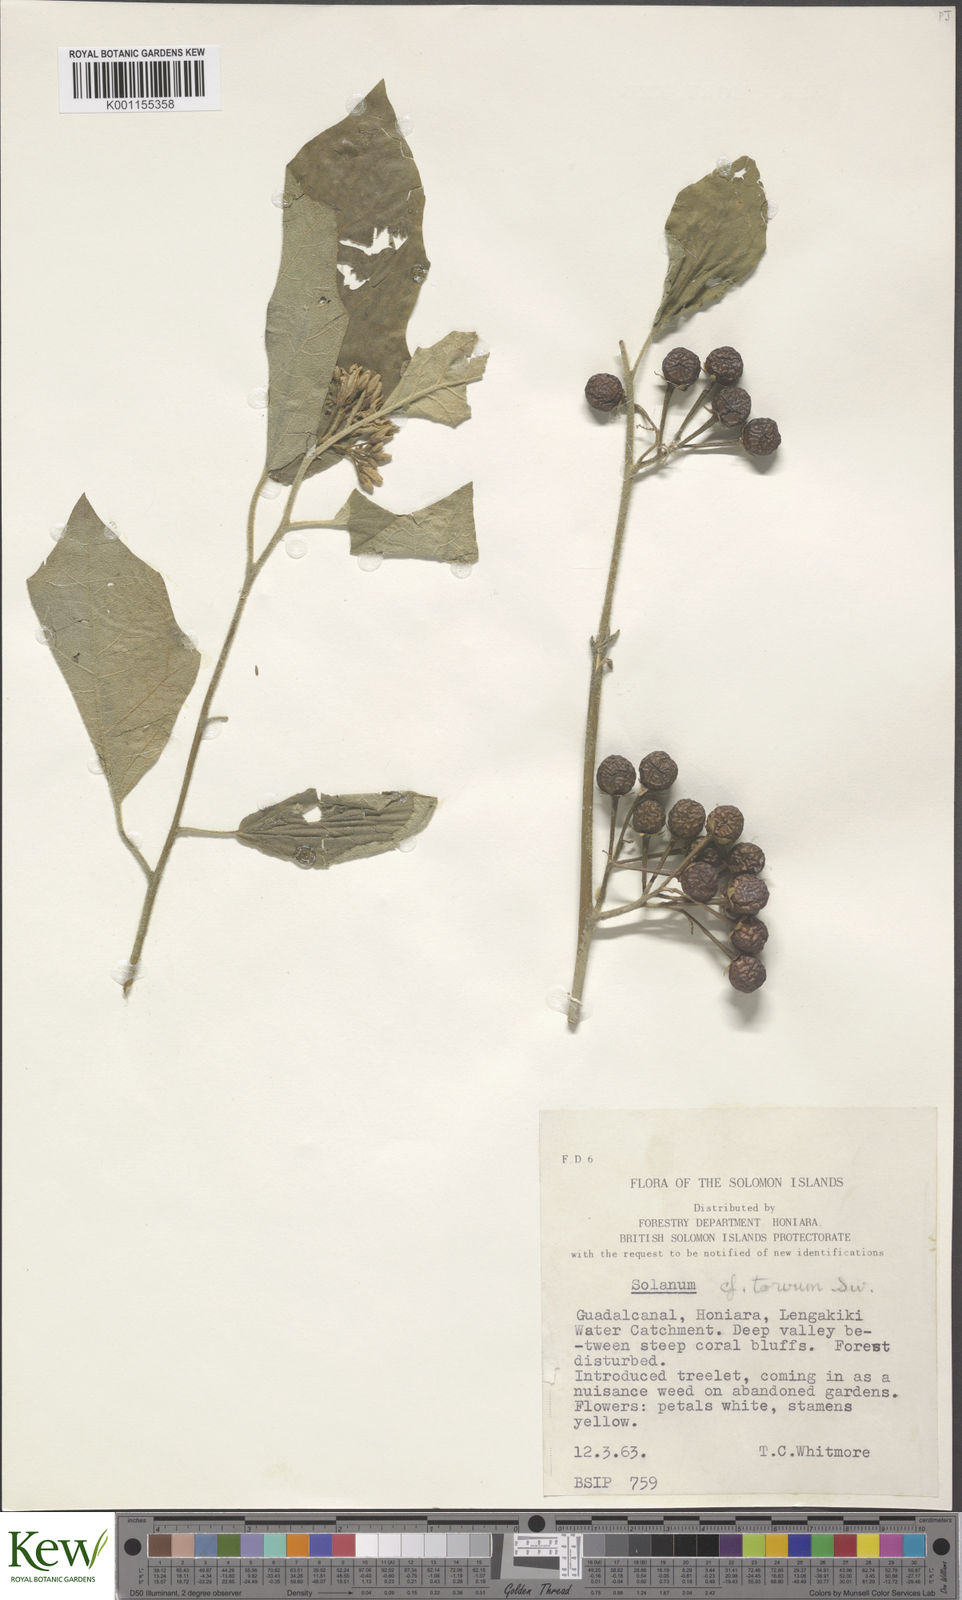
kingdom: Plantae
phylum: Tracheophyta
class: Magnoliopsida
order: Solanales
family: Solanaceae
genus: Solanum
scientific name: Solanum torvum
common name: Turkey berry
